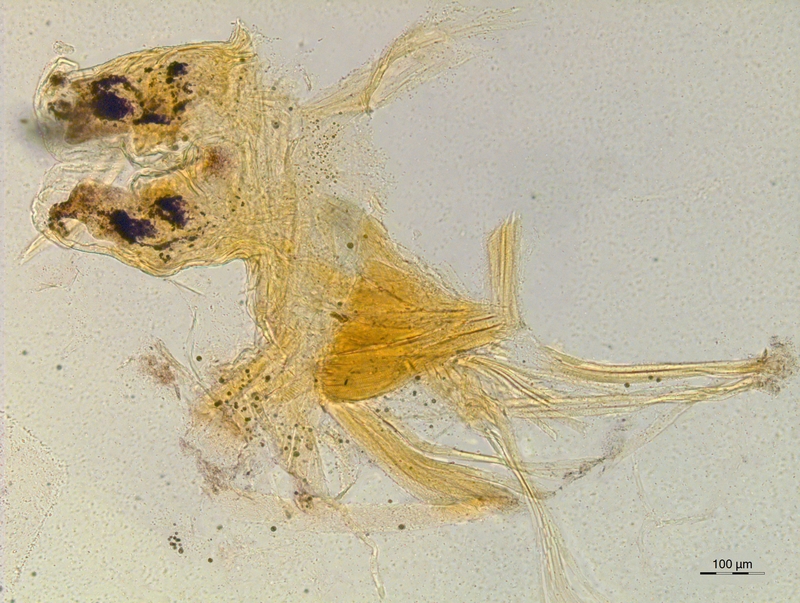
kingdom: Animalia
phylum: Arthropoda
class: Diplopoda
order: Chordeumatida
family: Craspedosomatidae
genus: Atractosoma
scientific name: Atractosoma marinense
